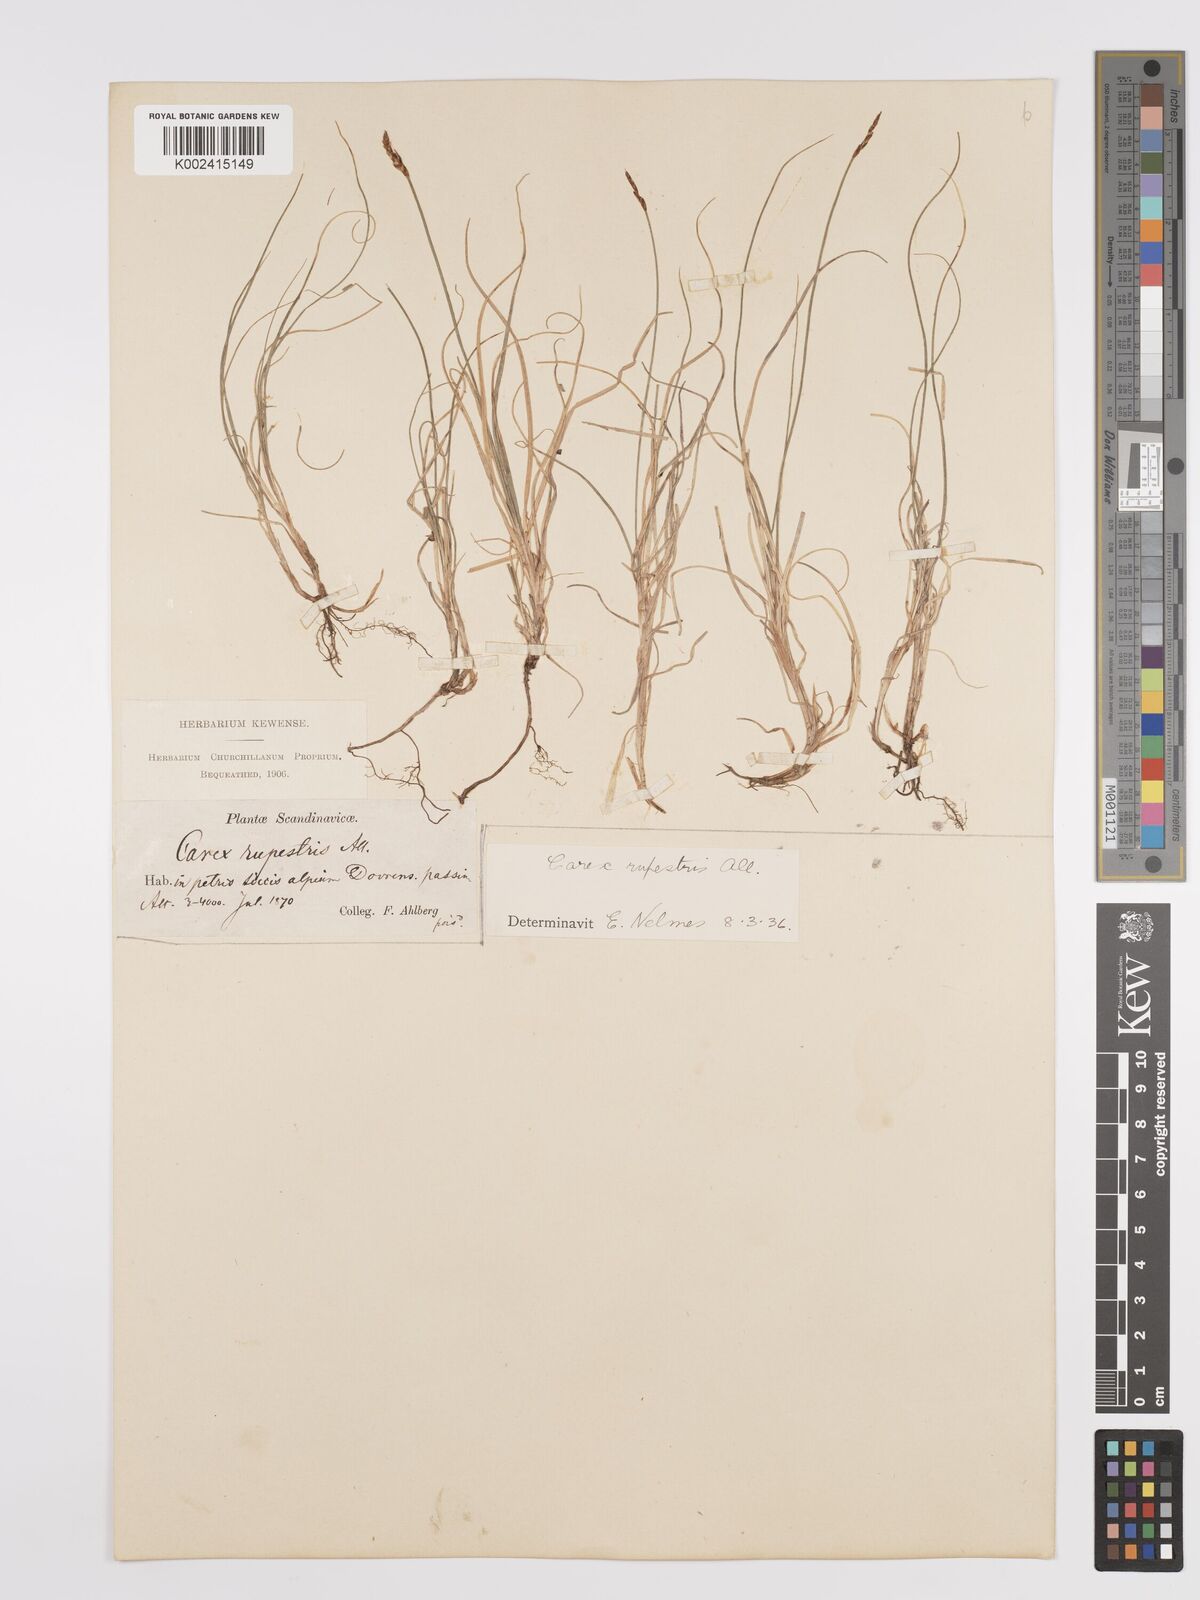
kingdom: Plantae
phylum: Tracheophyta
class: Liliopsida
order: Poales
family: Cyperaceae
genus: Carex
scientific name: Carex rupestris
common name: Rock sedge
